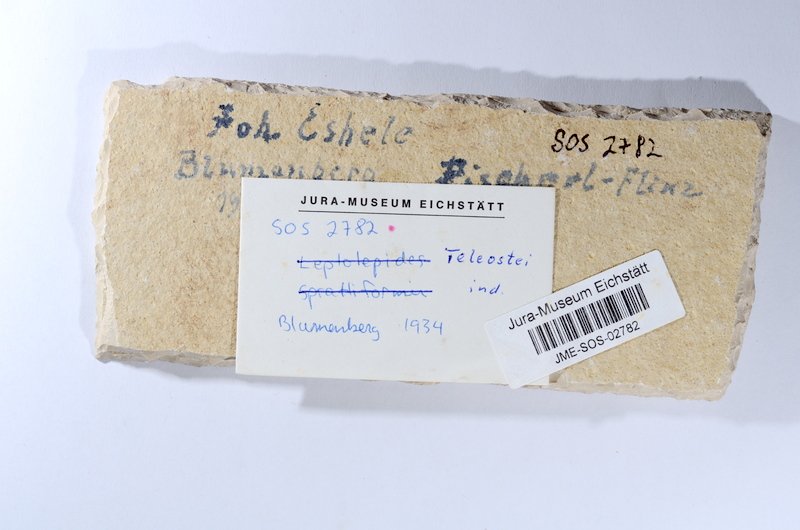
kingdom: Animalia
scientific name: Animalia
